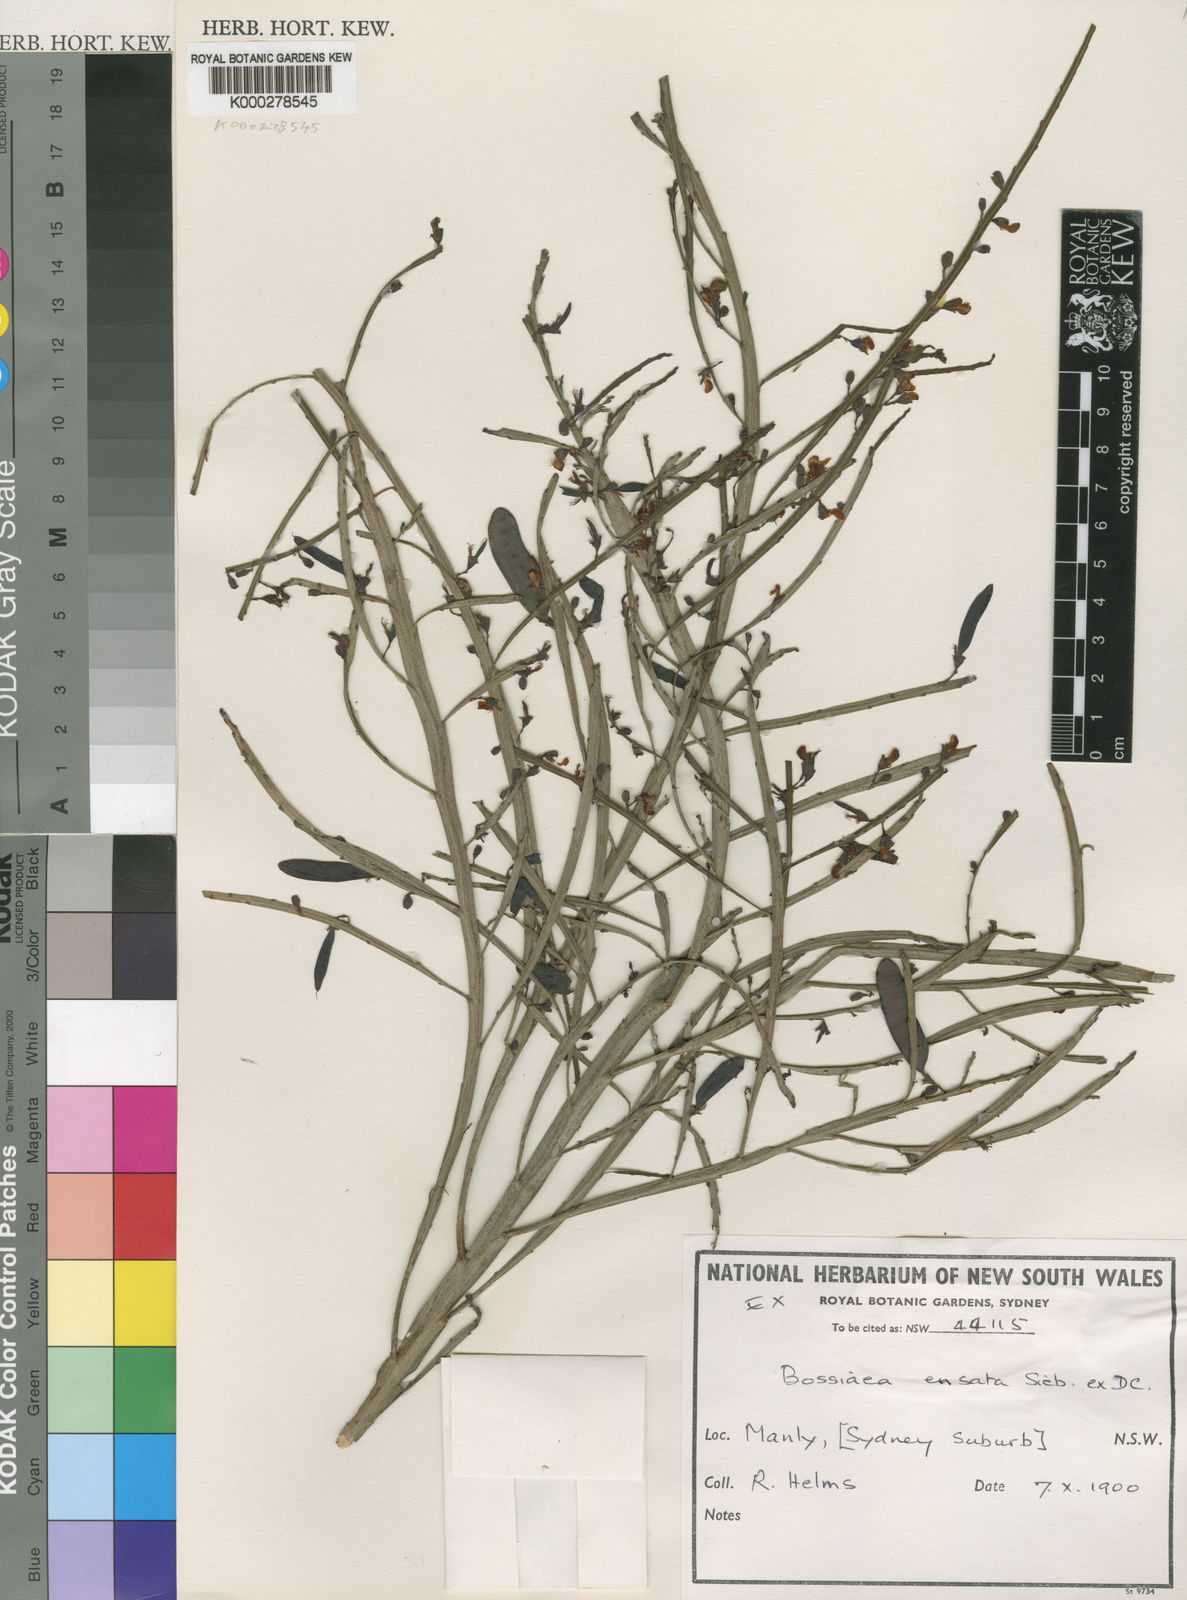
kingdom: Plantae
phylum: Tracheophyta
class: Magnoliopsida
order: Fabales
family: Fabaceae
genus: Bossiaea
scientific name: Bossiaea ensata
